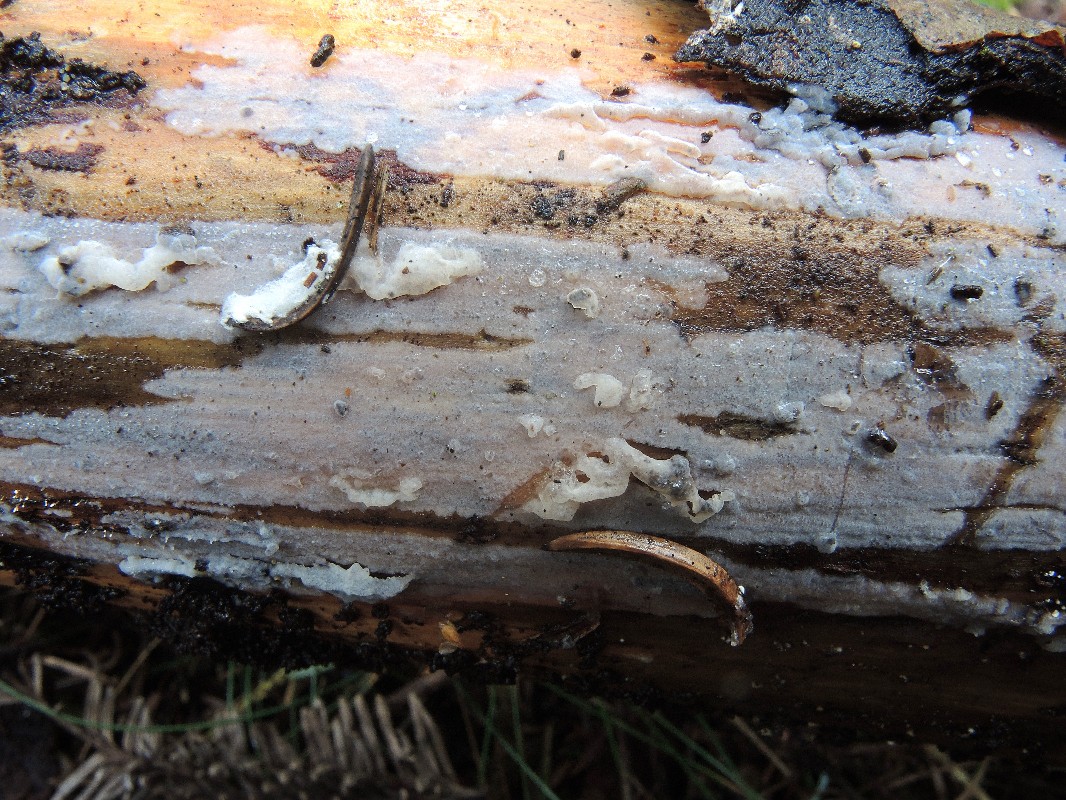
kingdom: Fungi
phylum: Basidiomycota
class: Tremellomycetes
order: Tremellales
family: Exidiaceae
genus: Exidiopsis
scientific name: Exidiopsis
